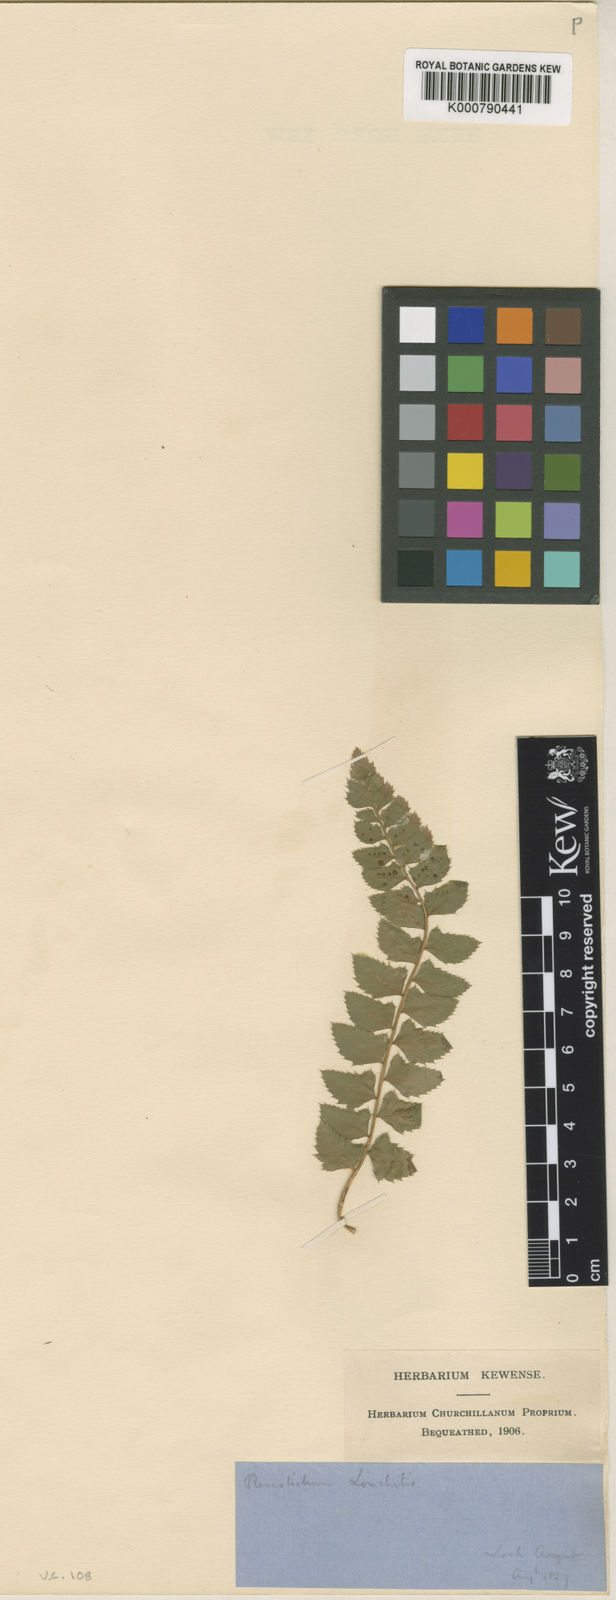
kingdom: Plantae
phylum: Tracheophyta
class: Polypodiopsida
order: Polypodiales
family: Dryopteridaceae
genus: Polystichum
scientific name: Polystichum
